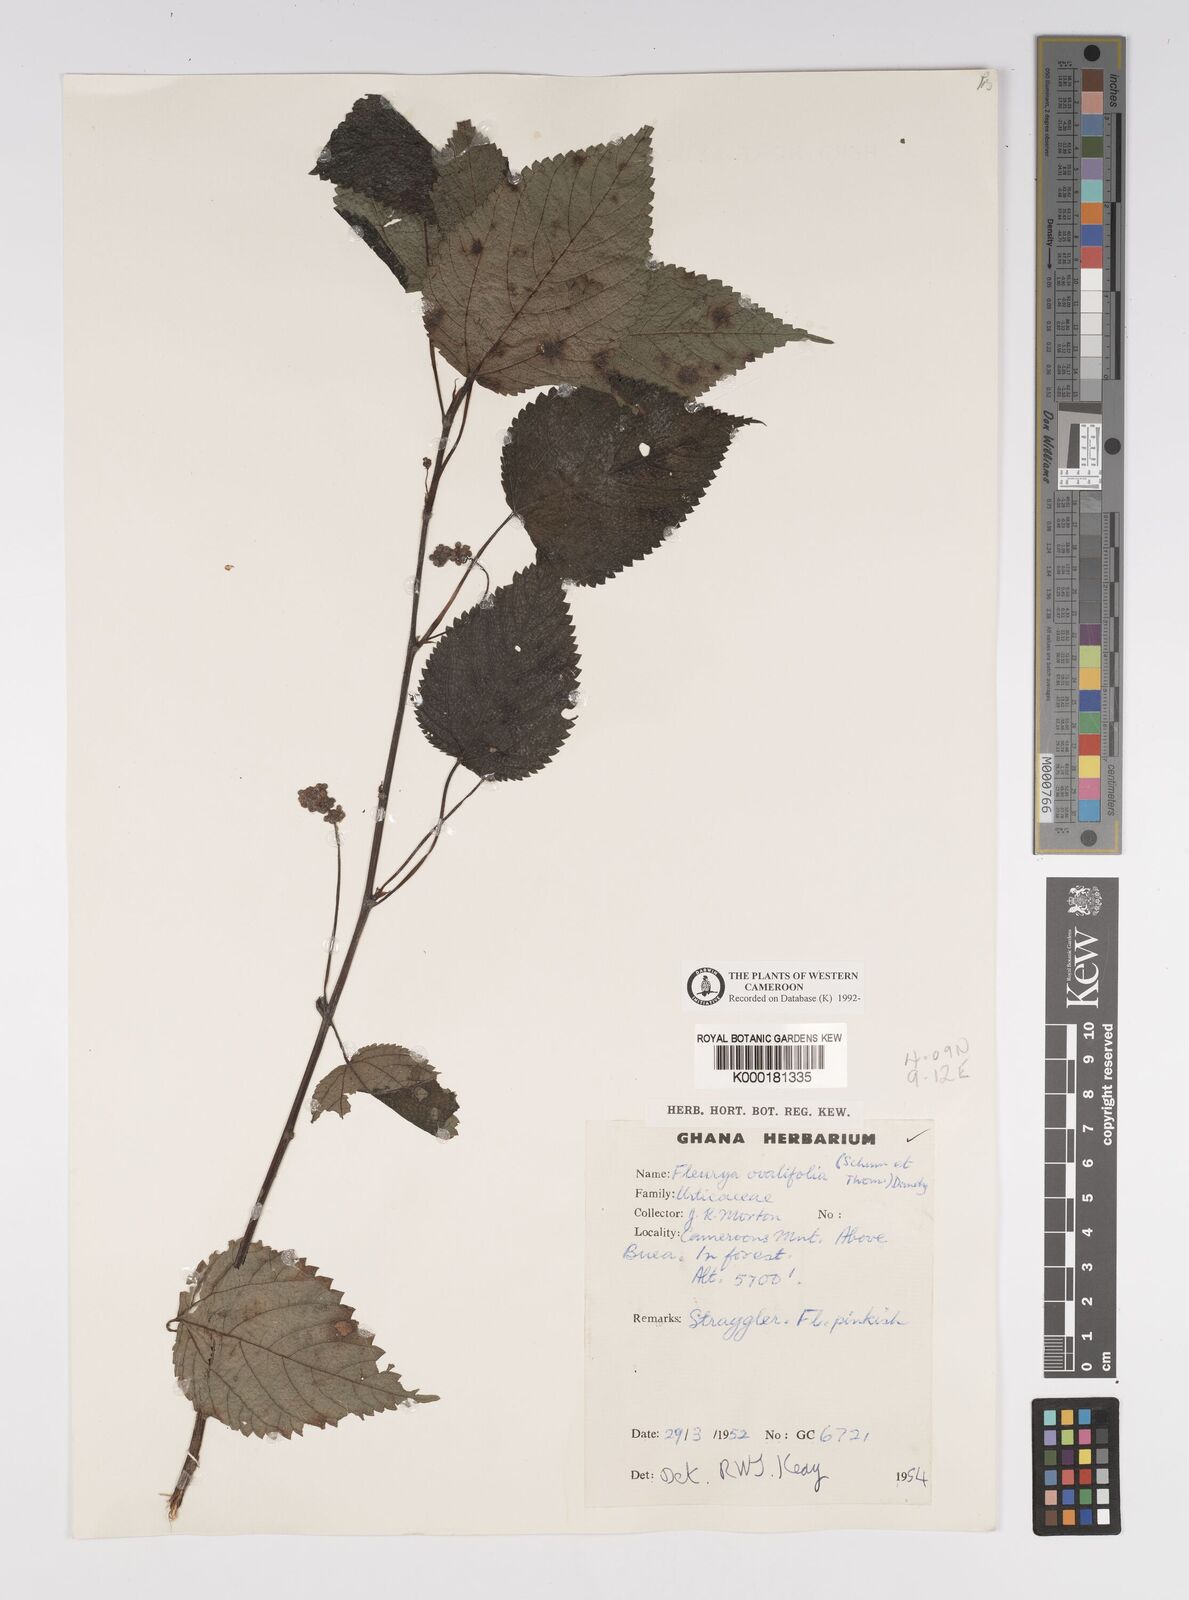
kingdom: Plantae
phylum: Tracheophyta
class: Magnoliopsida
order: Rosales
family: Urticaceae
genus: Laportea
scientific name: Laportea ovalifolia
